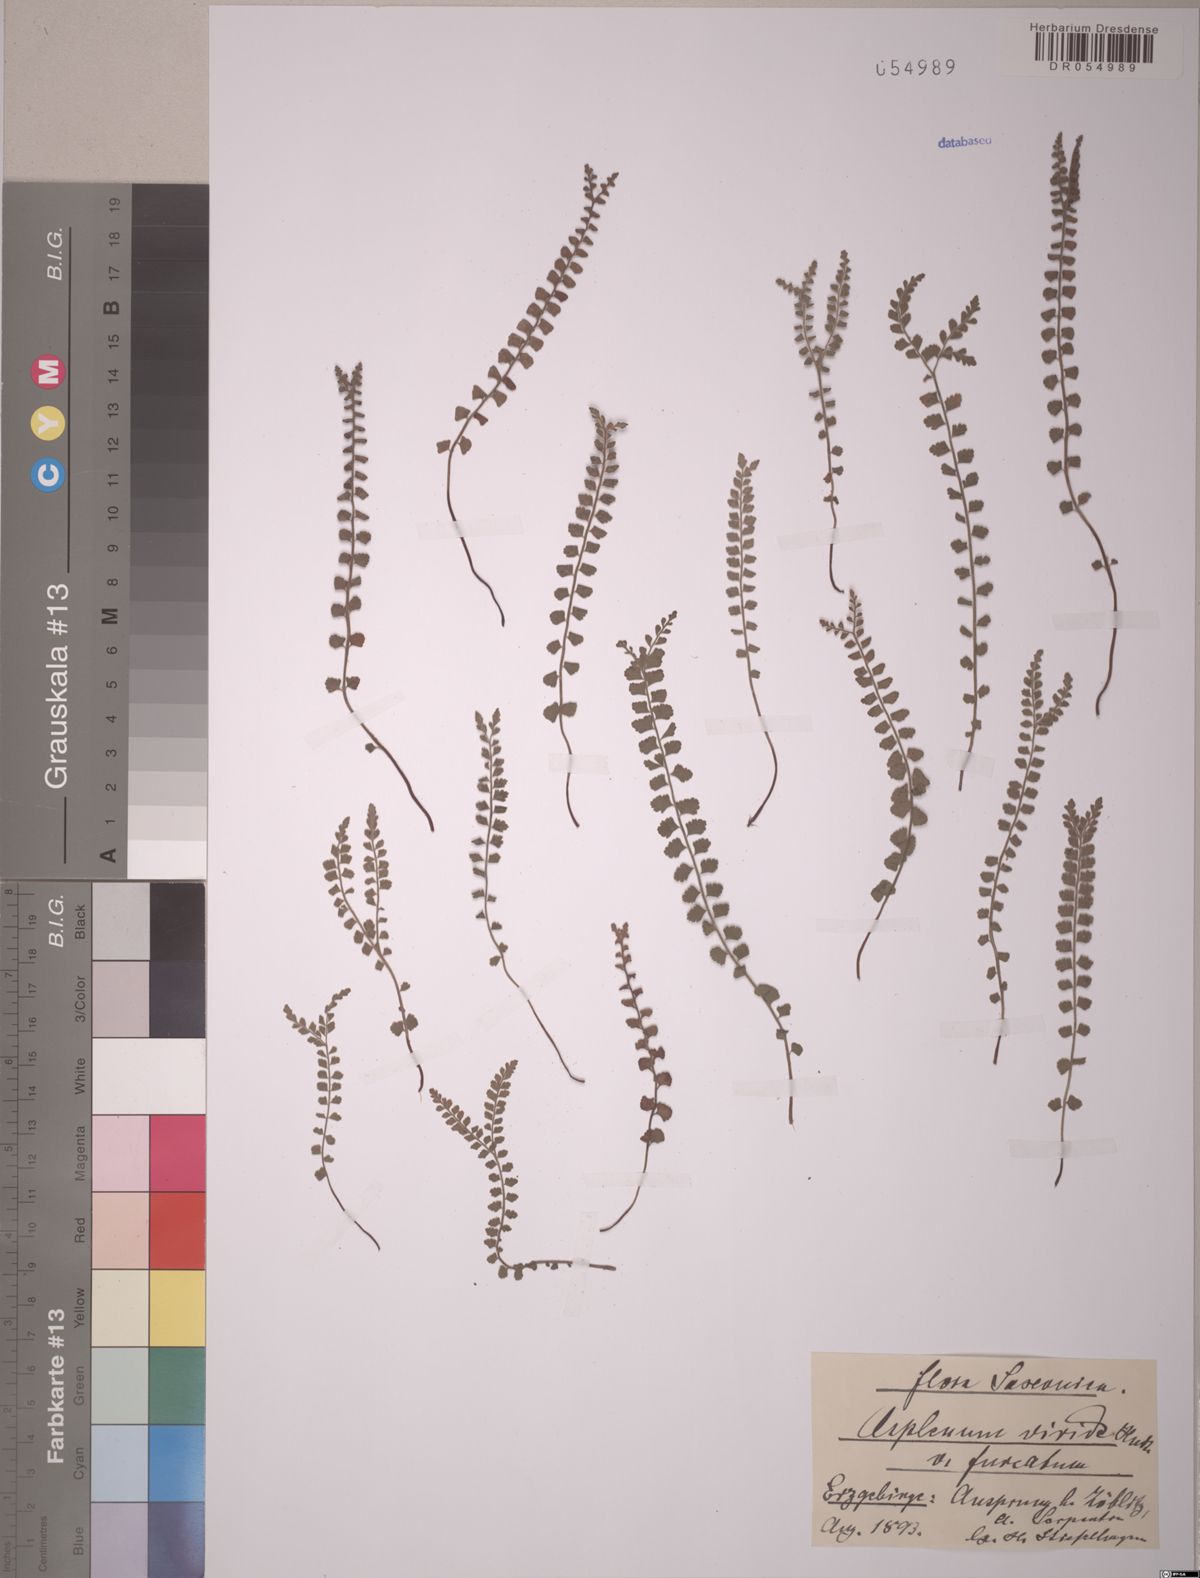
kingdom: Plantae
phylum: Tracheophyta
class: Polypodiopsida
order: Polypodiales
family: Aspleniaceae
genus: Asplenium
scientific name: Asplenium viride
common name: Green spleenwort
